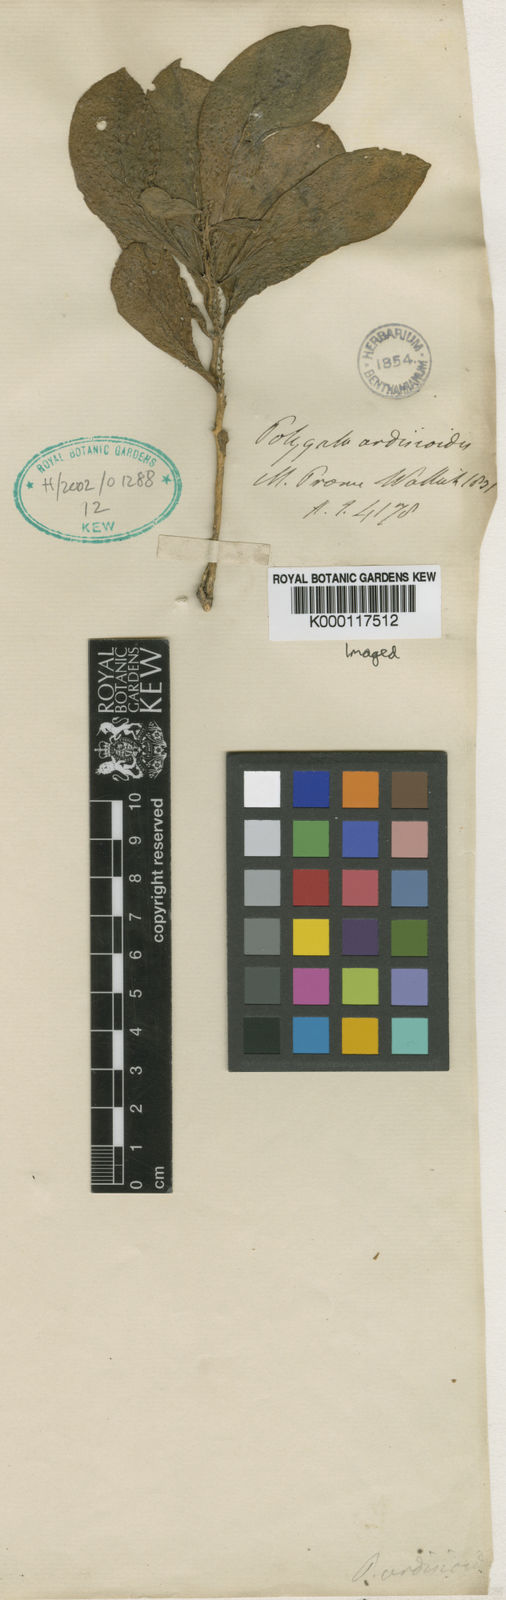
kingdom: Plantae
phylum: Tracheophyta
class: Magnoliopsida
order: Fabales
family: Polygalaceae
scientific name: Polygalaceae
